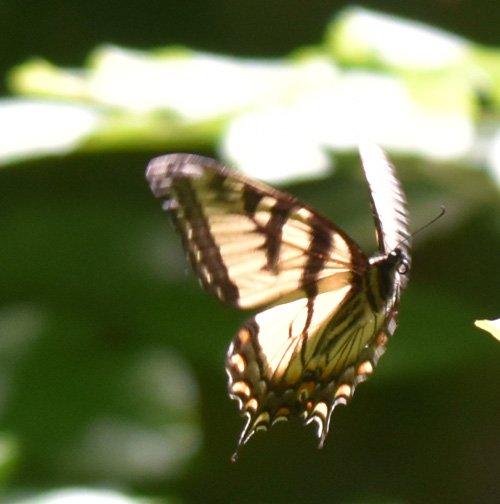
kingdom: Animalia
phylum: Arthropoda
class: Insecta
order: Lepidoptera
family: Papilionidae
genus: Pterourus
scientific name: Pterourus glaucus
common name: Eastern Tiger Swallowtail
